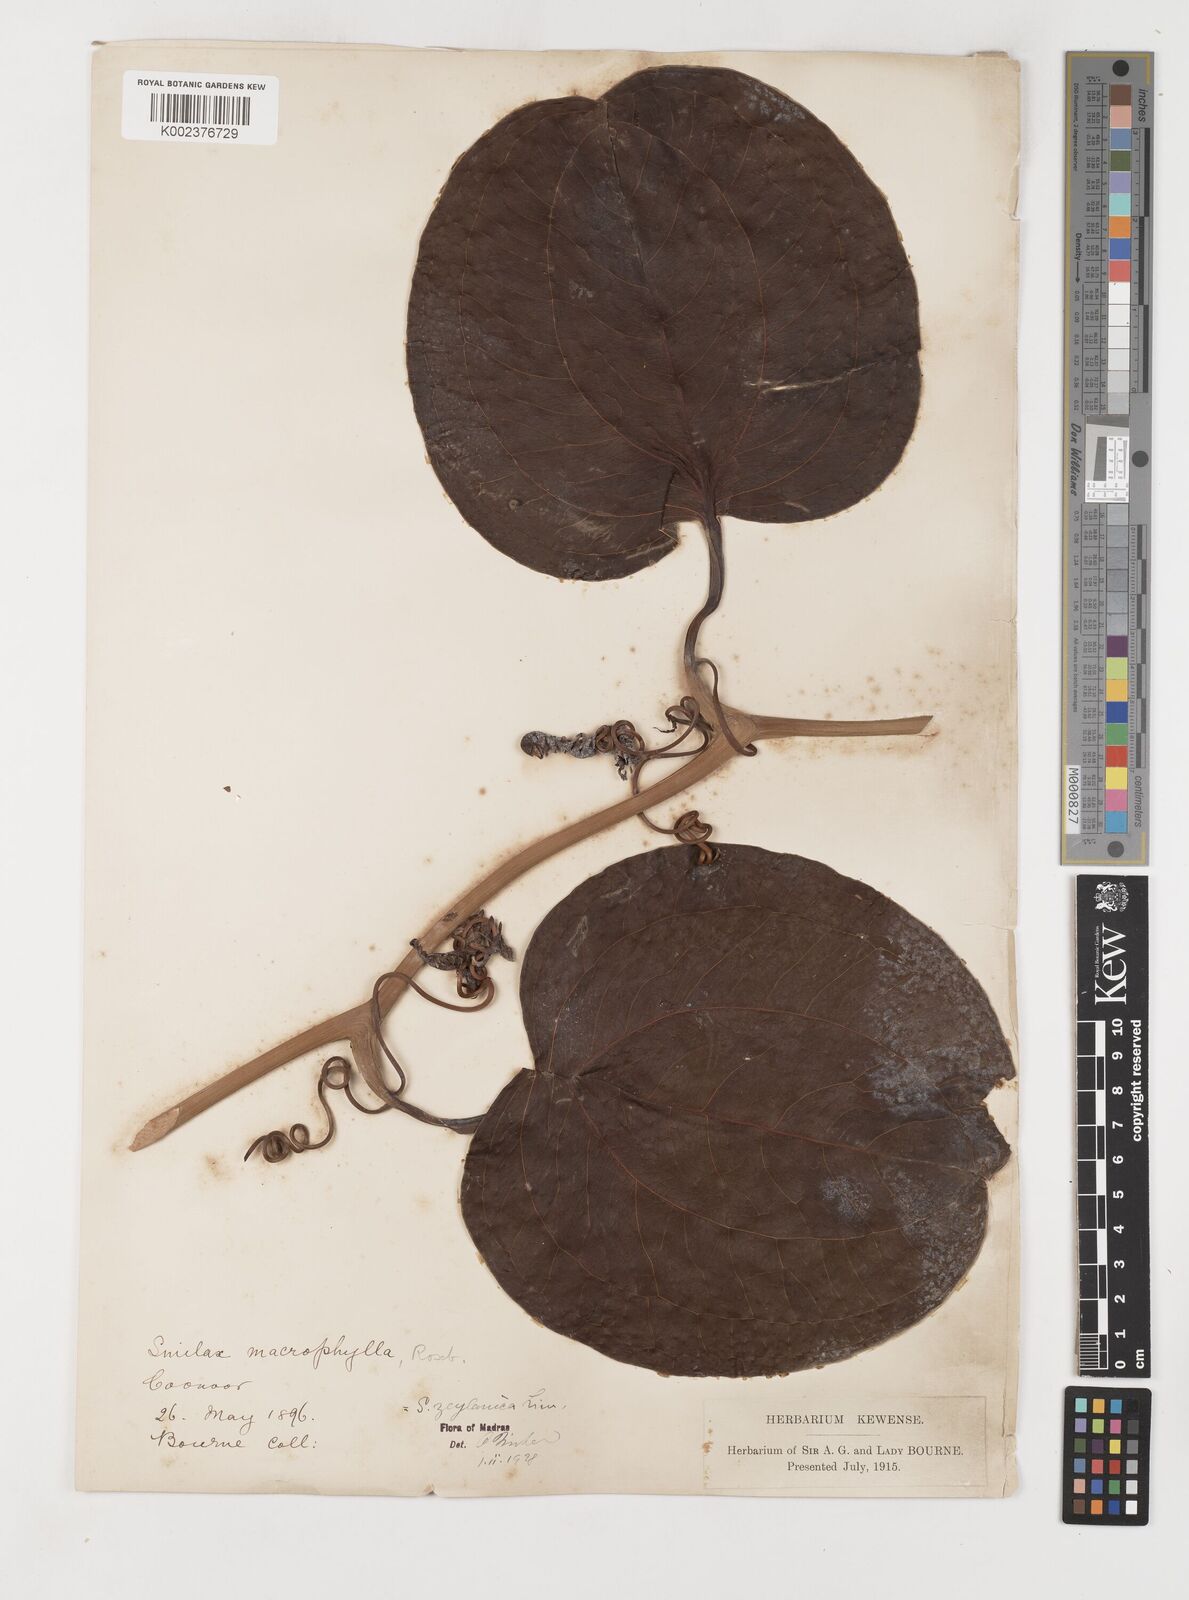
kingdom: Plantae
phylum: Tracheophyta
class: Liliopsida
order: Liliales
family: Smilacaceae
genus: Smilax
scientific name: Smilax zeylanica
